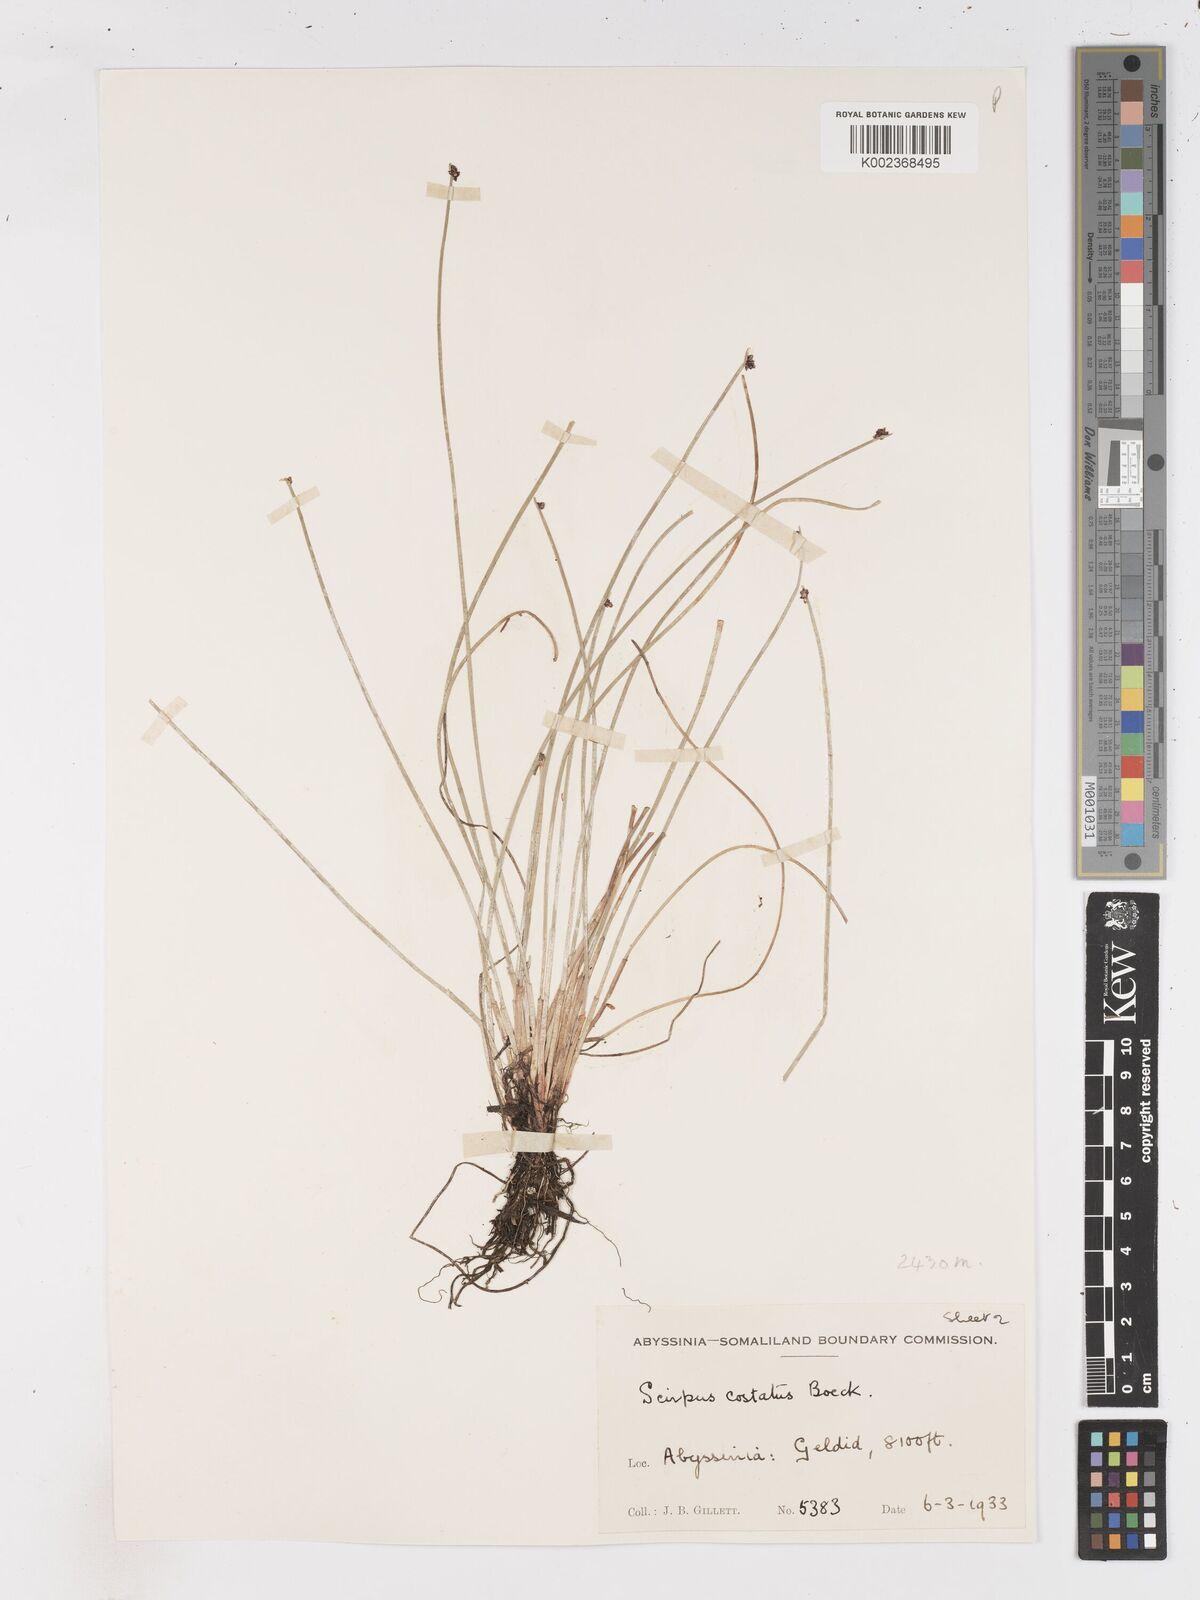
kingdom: Plantae
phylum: Tracheophyta
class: Liliopsida
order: Poales
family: Cyperaceae
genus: Isolepis
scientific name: Isolepis costata
